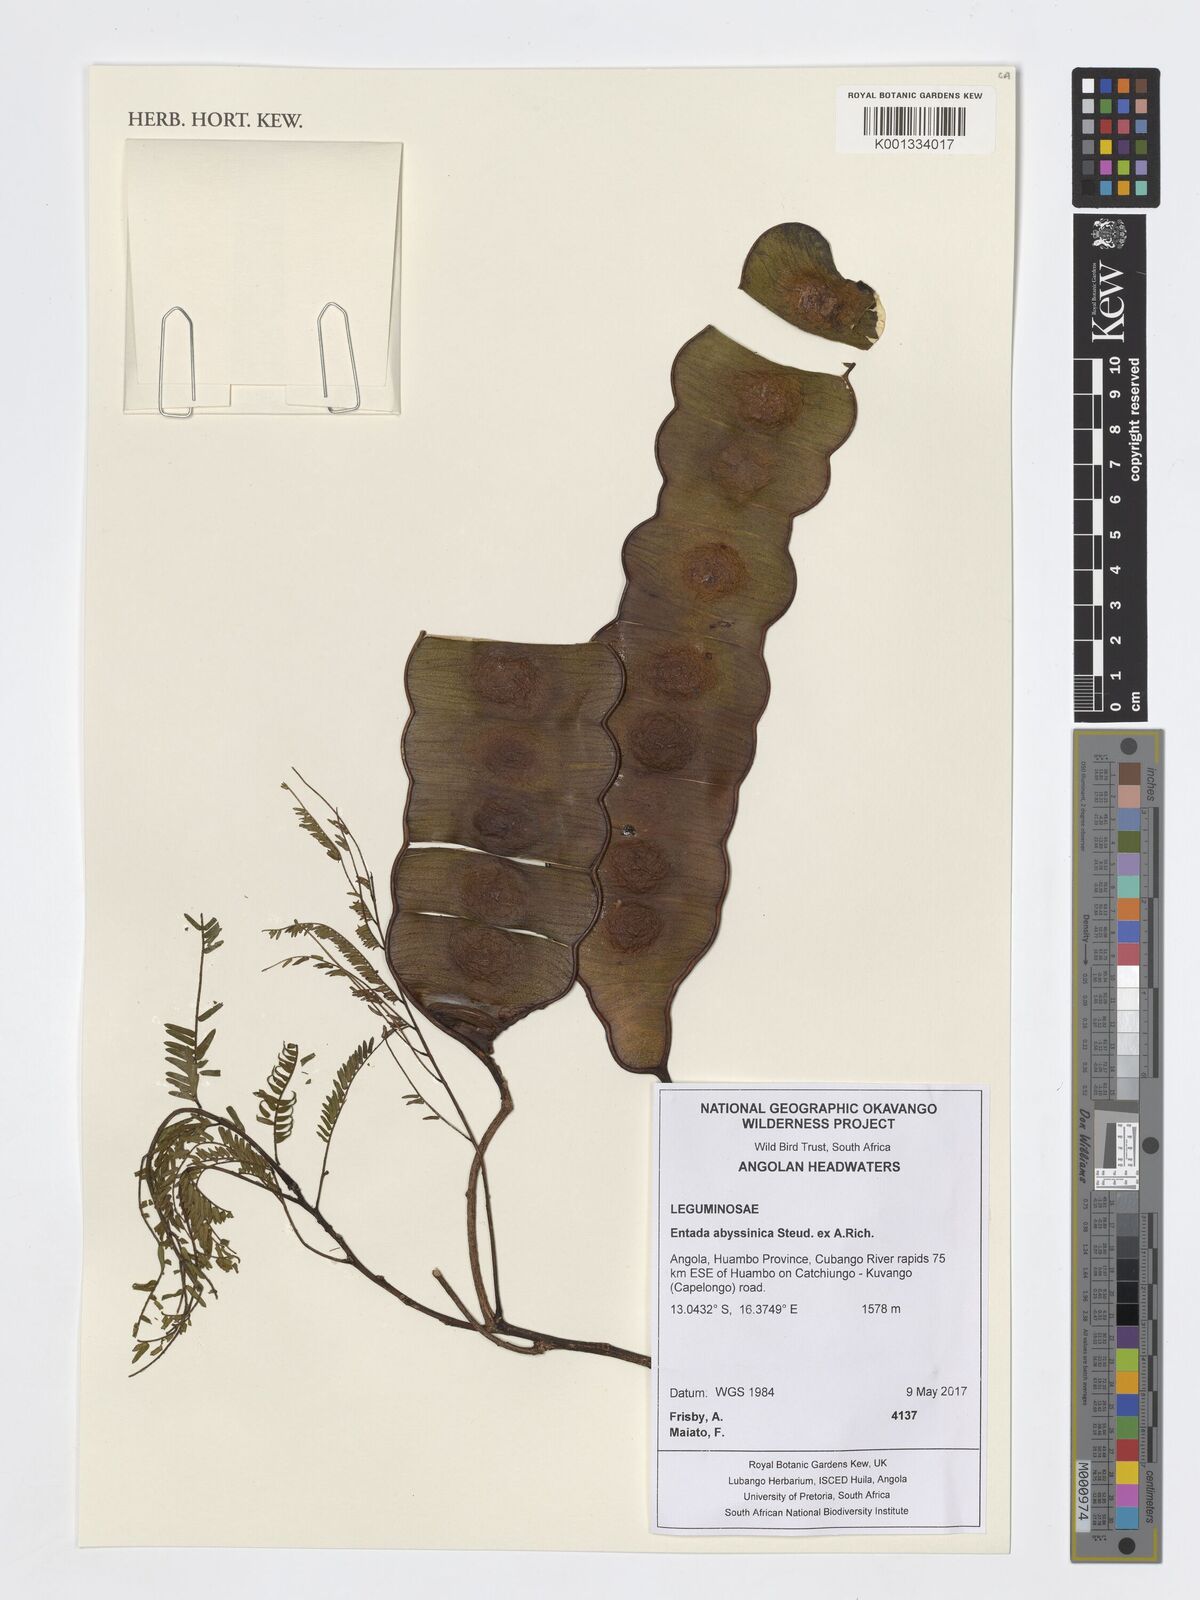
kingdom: Plantae
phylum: Tracheophyta
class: Magnoliopsida
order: Fabales
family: Fabaceae
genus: Entada
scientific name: Entada abyssinica
